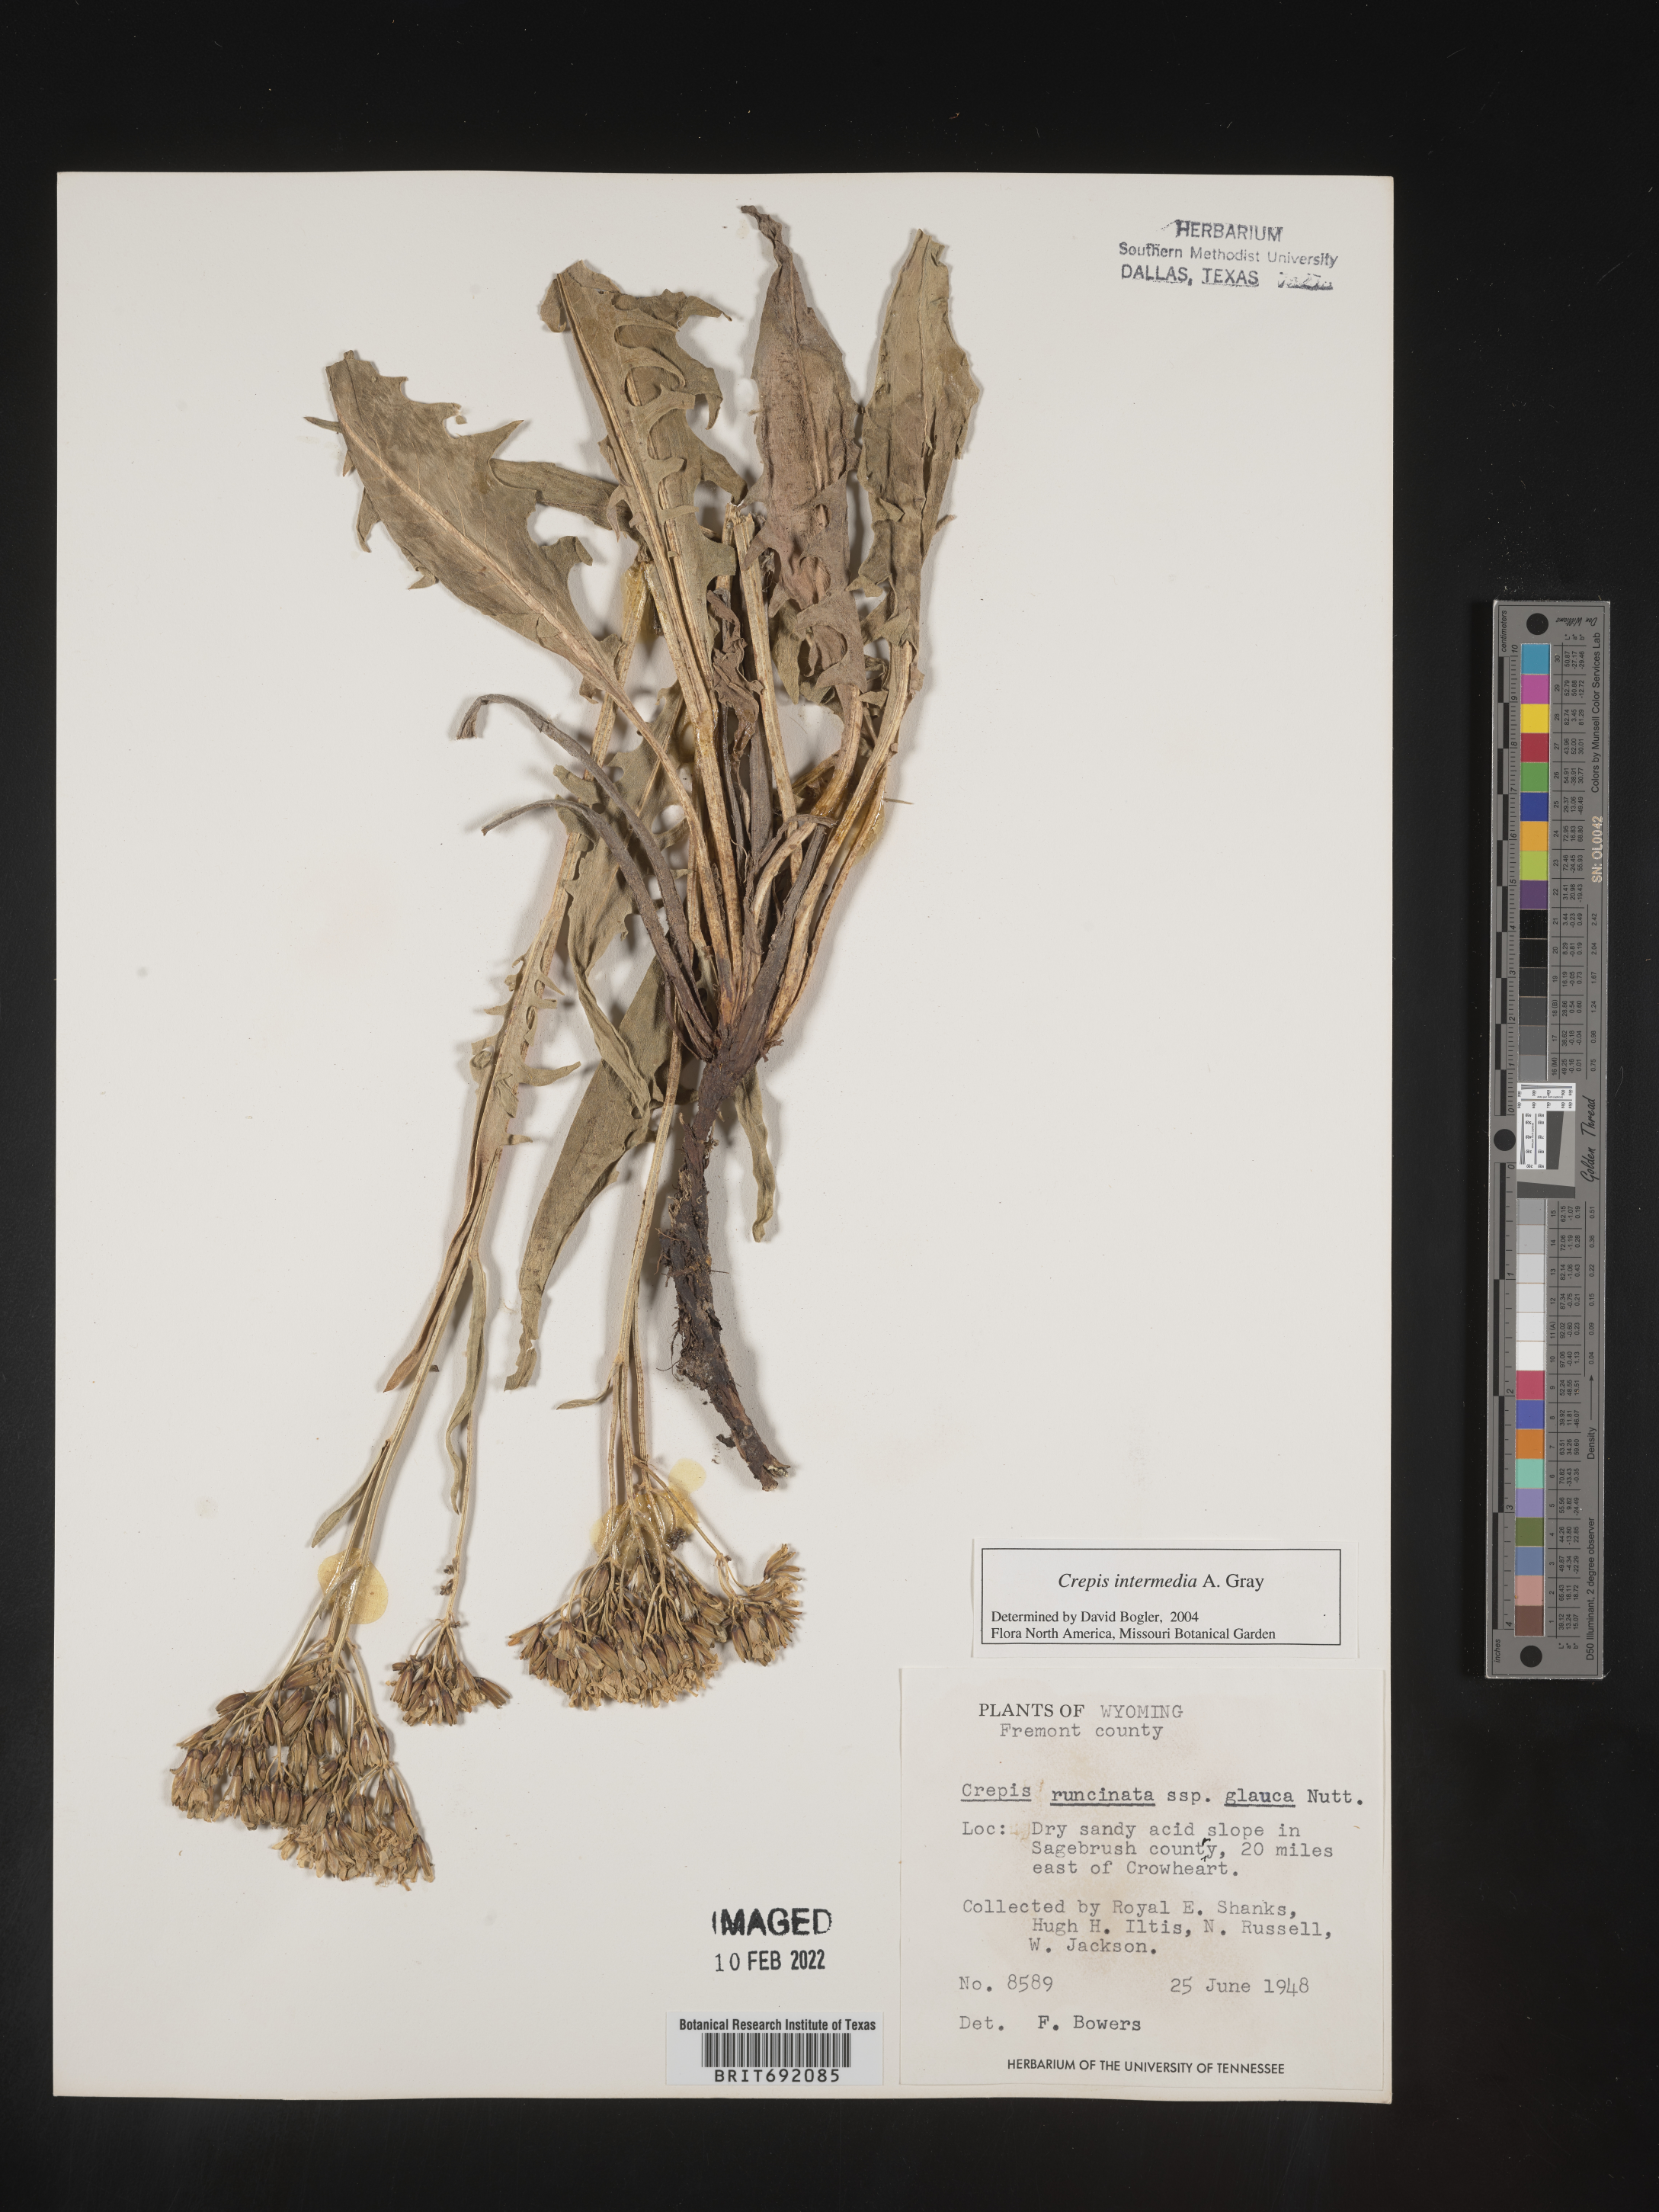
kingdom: Plantae
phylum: Tracheophyta
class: Magnoliopsida
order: Asterales
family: Asteraceae
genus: Crepis
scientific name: Crepis intermedia
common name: Limestone hawk's-beard
